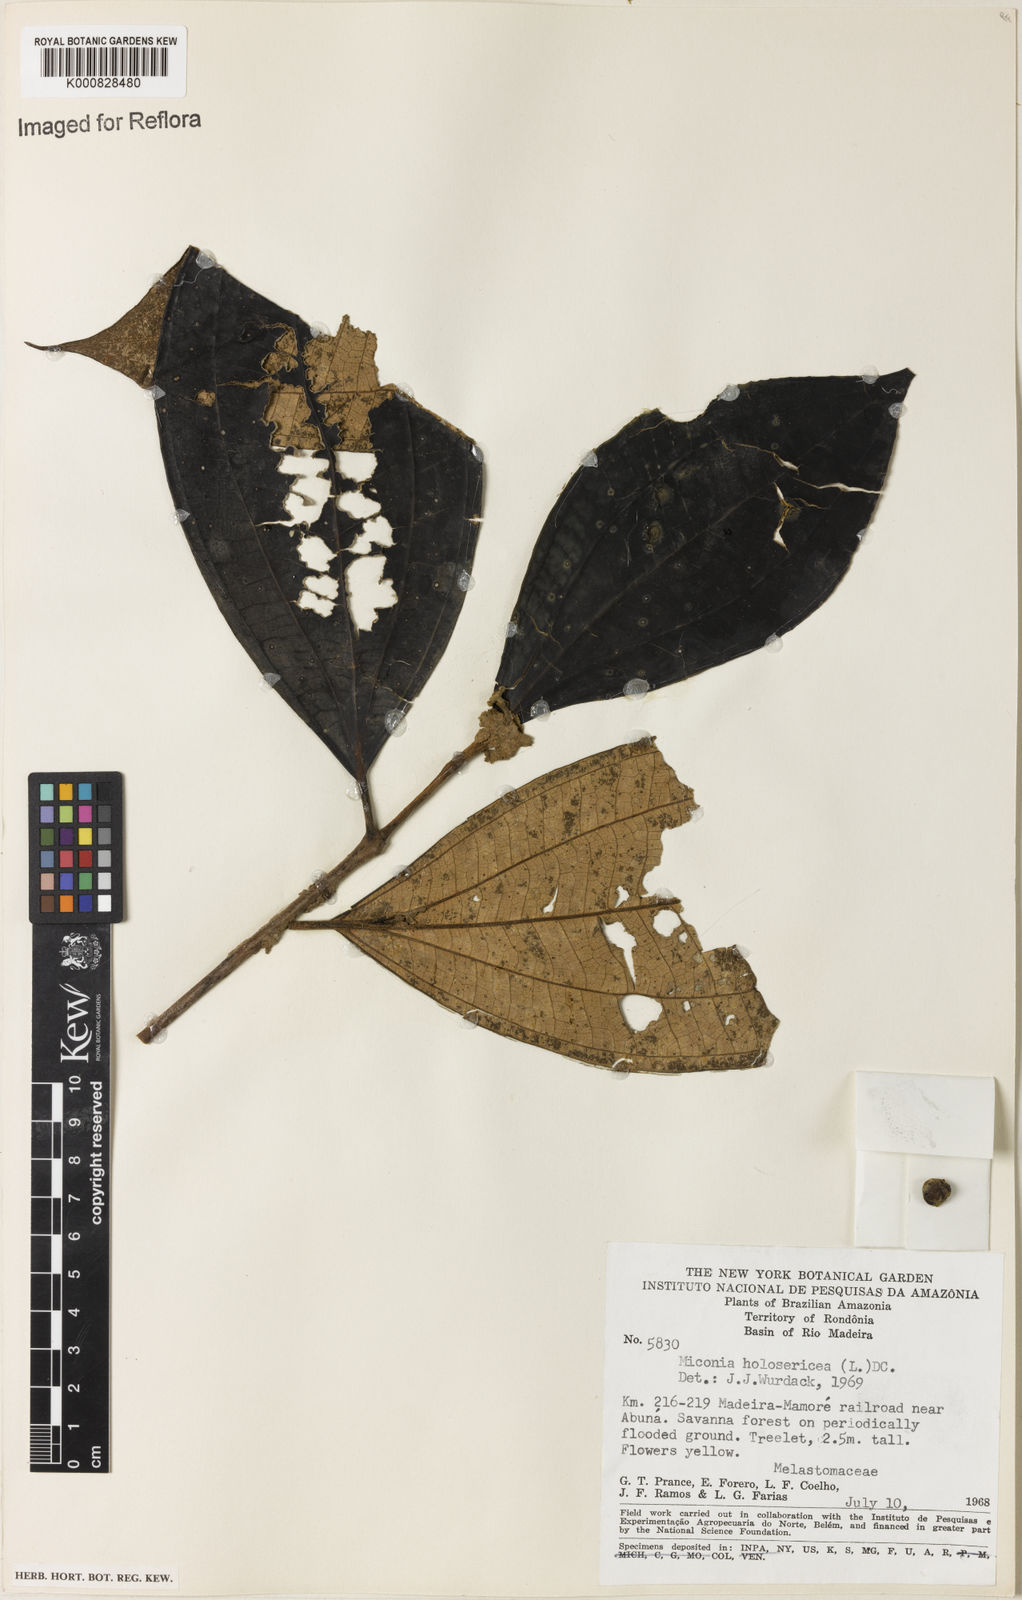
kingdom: Plantae
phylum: Tracheophyta
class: Magnoliopsida
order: Myrtales
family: Melastomataceae
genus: Miconia
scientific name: Miconia holosericea
